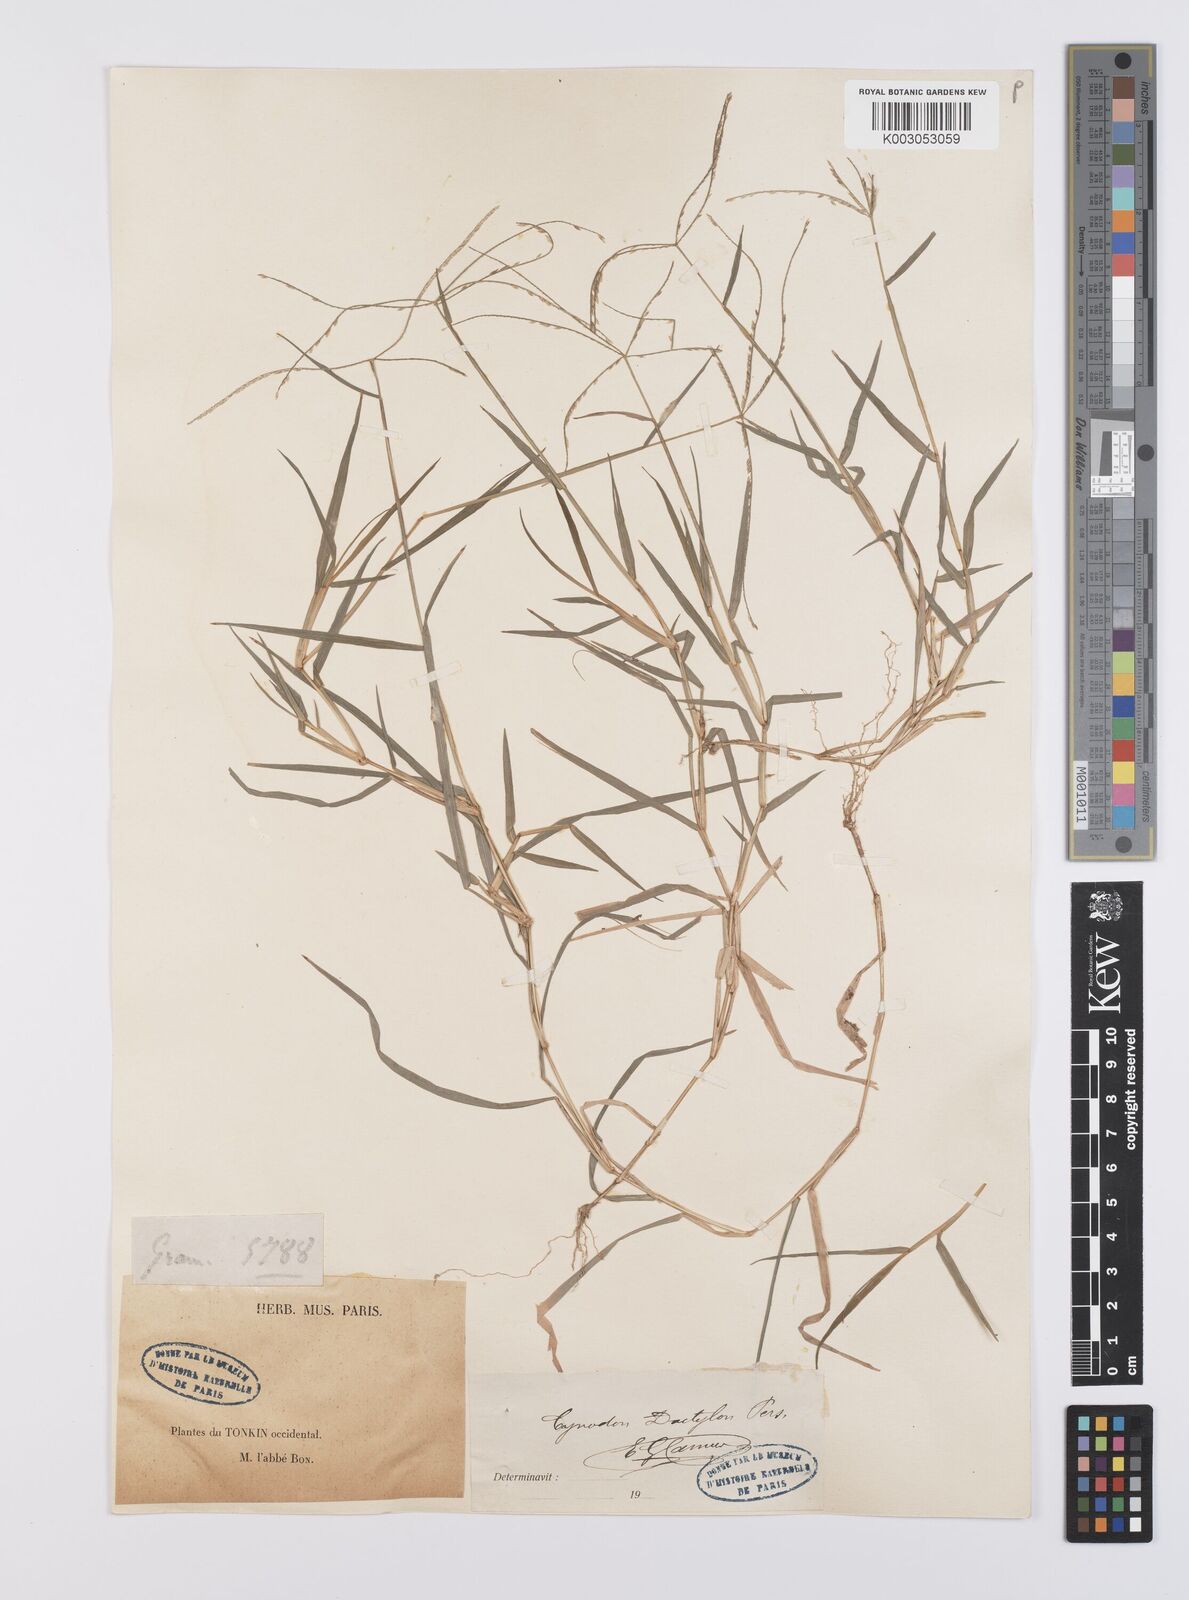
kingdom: Plantae
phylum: Tracheophyta
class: Liliopsida
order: Poales
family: Poaceae
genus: Cynodon
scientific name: Cynodon radiatus
